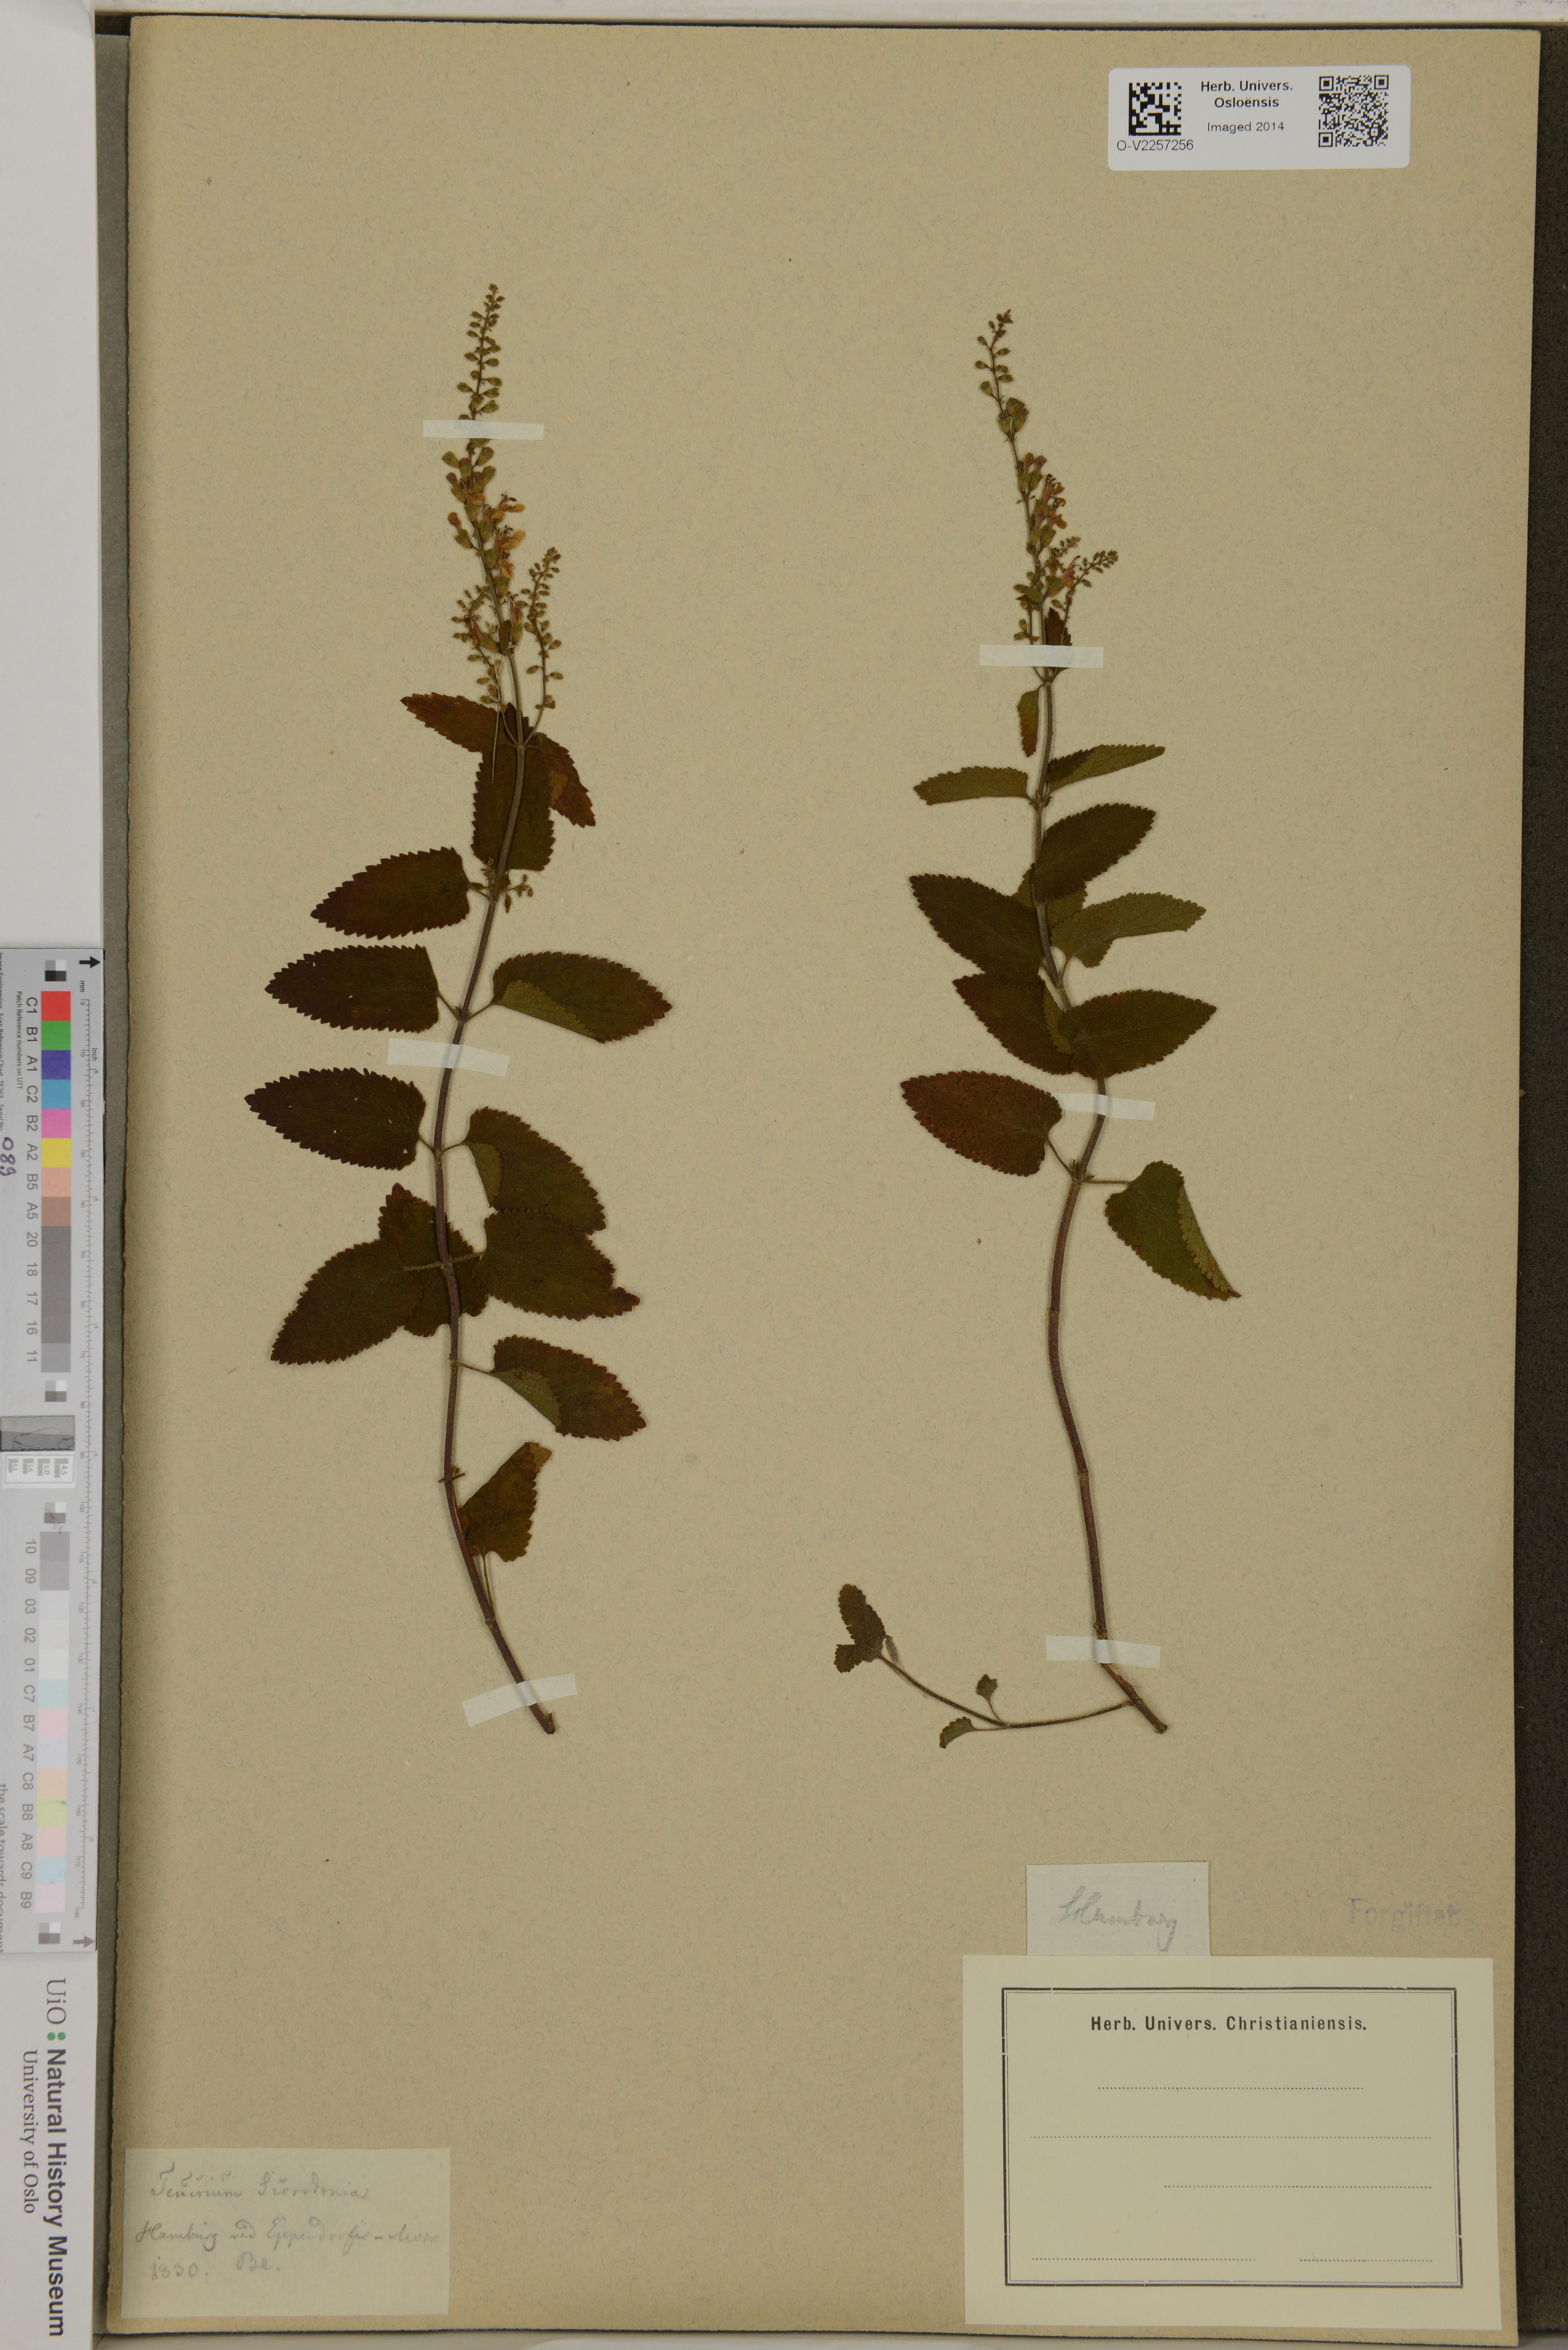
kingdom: Plantae
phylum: Tracheophyta
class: Magnoliopsida
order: Lamiales
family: Lamiaceae
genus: Teucrium
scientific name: Teucrium scorodonia
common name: Woodland germander
